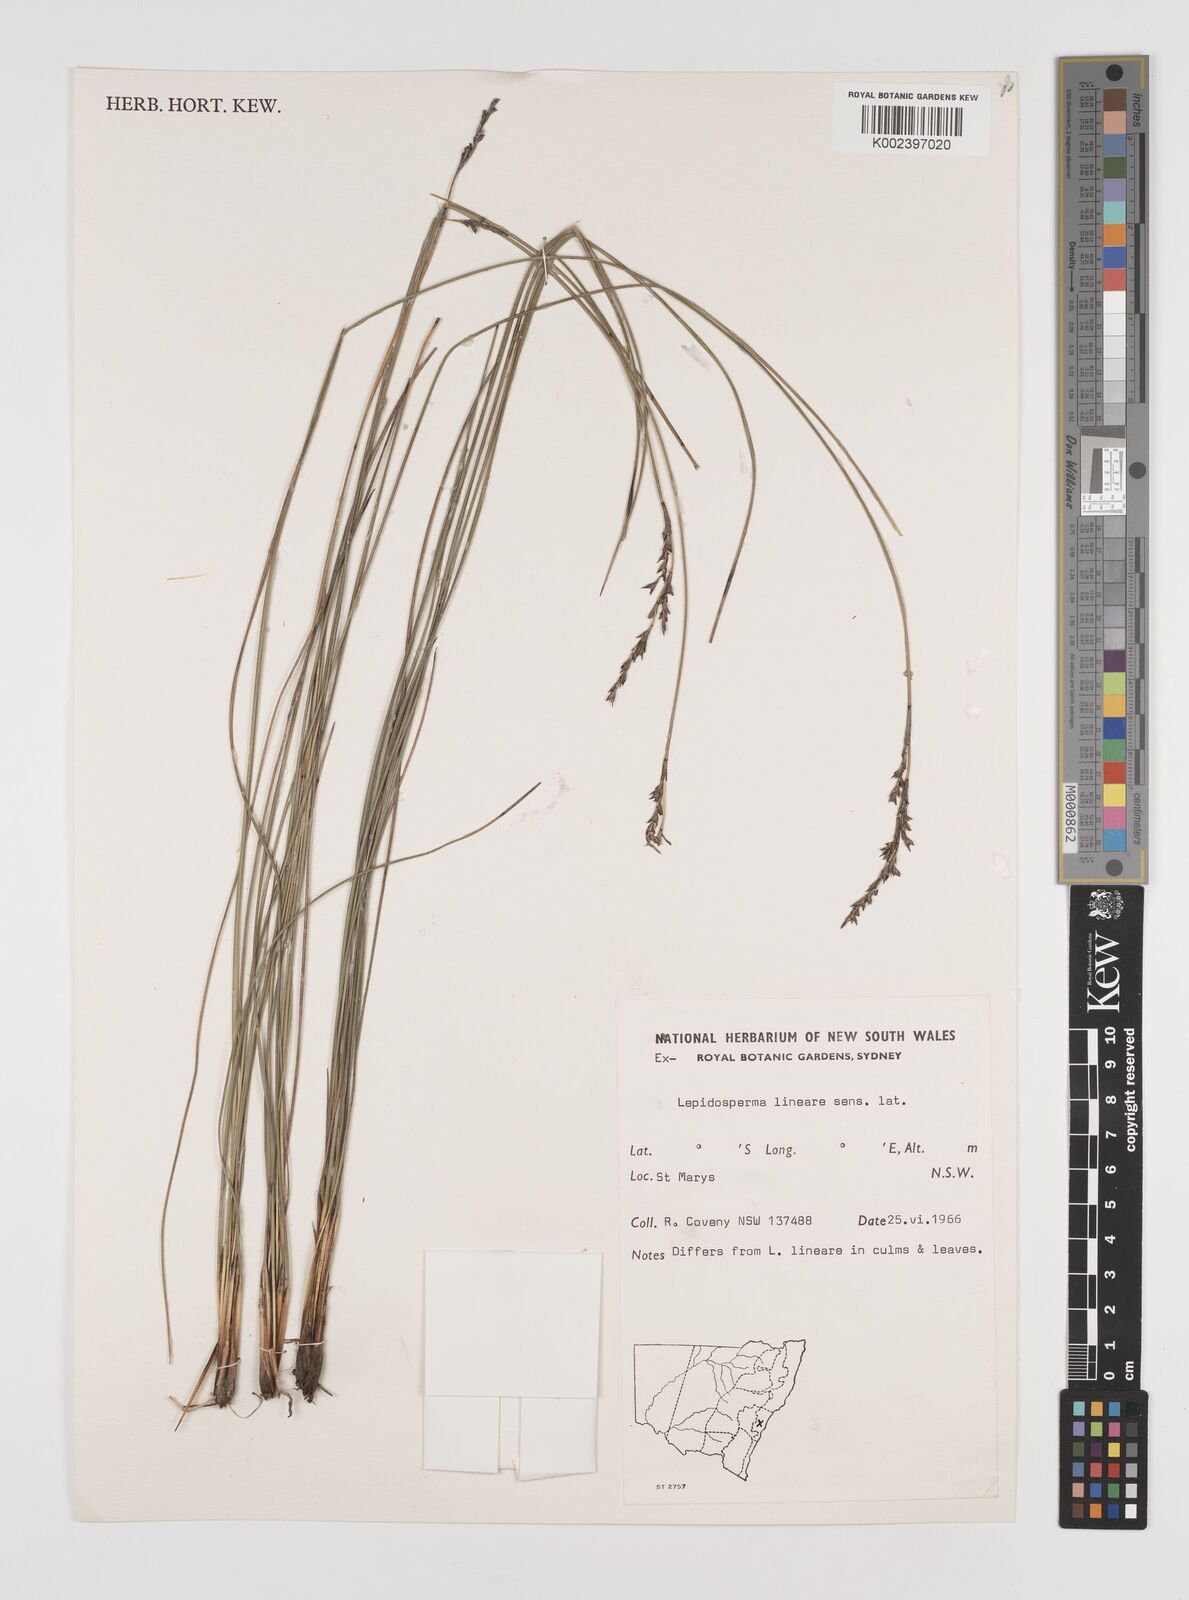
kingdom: Plantae
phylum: Tracheophyta
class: Liliopsida
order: Poales
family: Cyperaceae
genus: Lepidosperma
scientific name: Lepidosperma lineare
